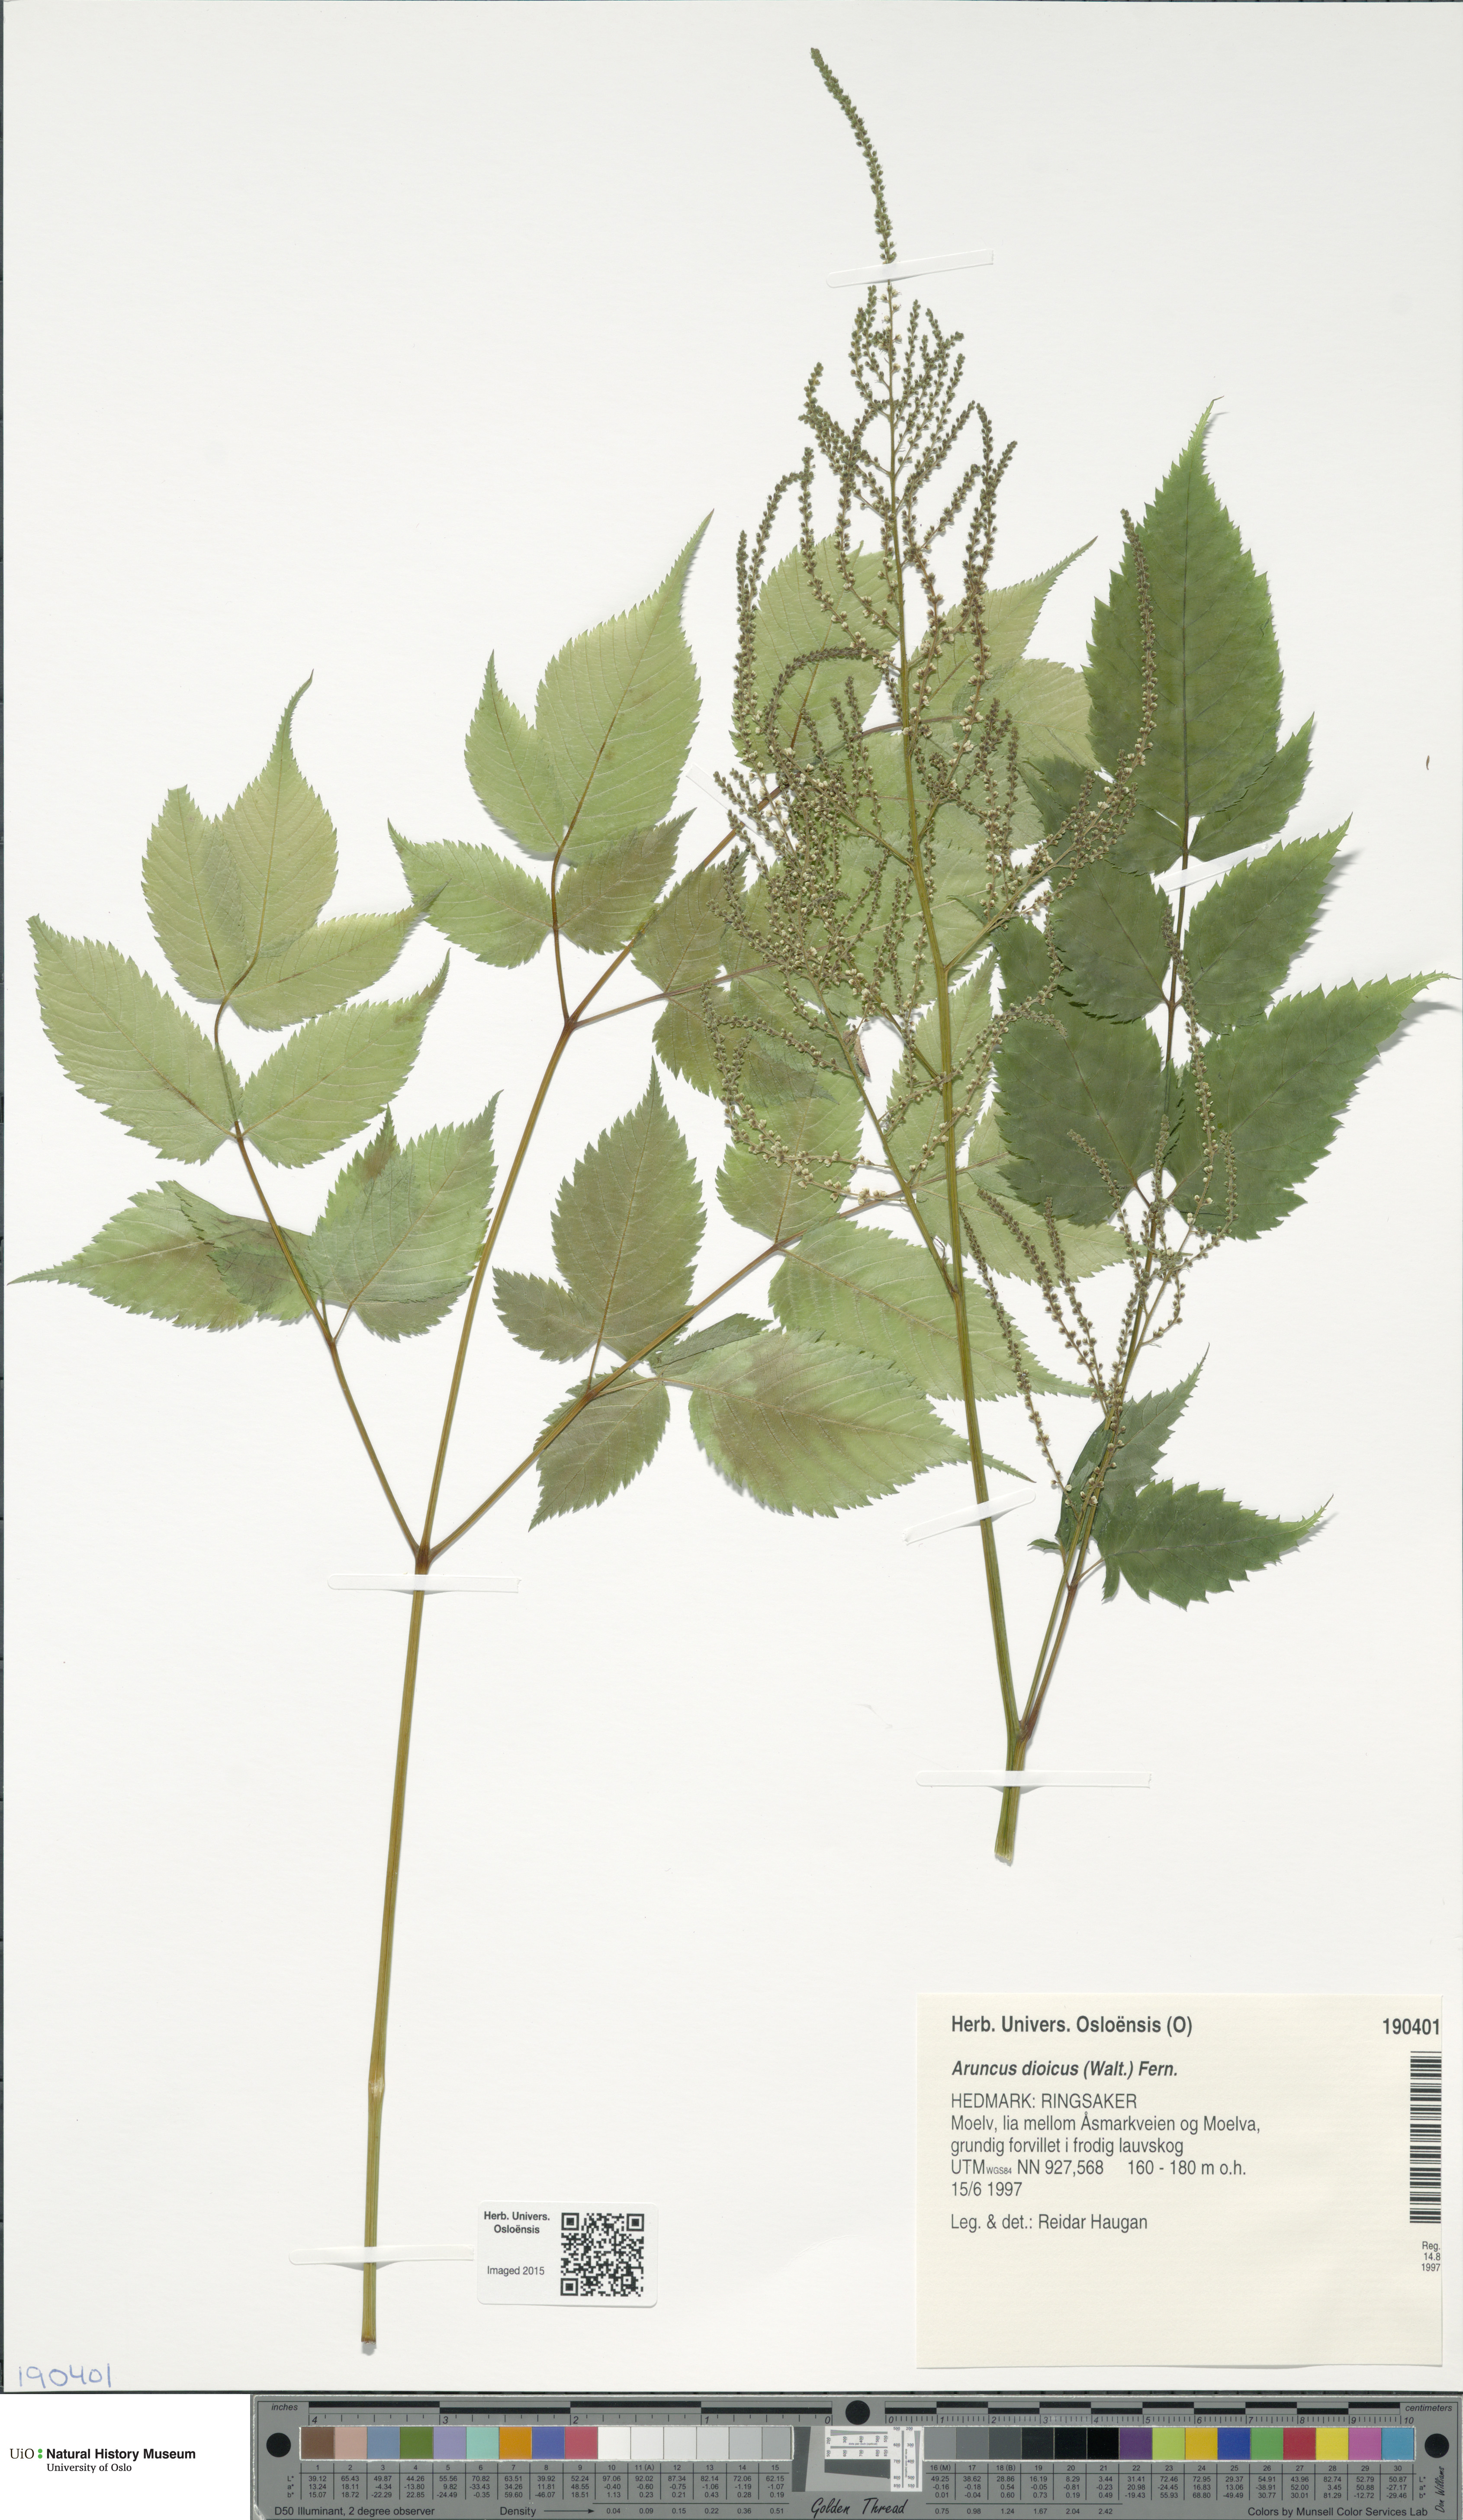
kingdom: Plantae
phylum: Tracheophyta
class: Magnoliopsida
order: Rosales
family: Rosaceae
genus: Aruncus
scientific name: Aruncus dioicus
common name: Buck's-beard
